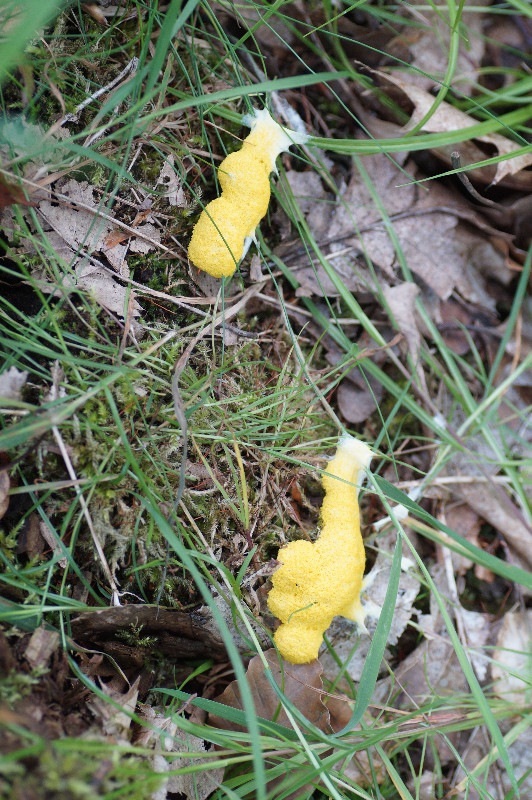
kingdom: Protozoa
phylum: Mycetozoa
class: Myxomycetes
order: Physarales
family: Physaraceae
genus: Fuligo
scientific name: Fuligo septica
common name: gul troldsmør
